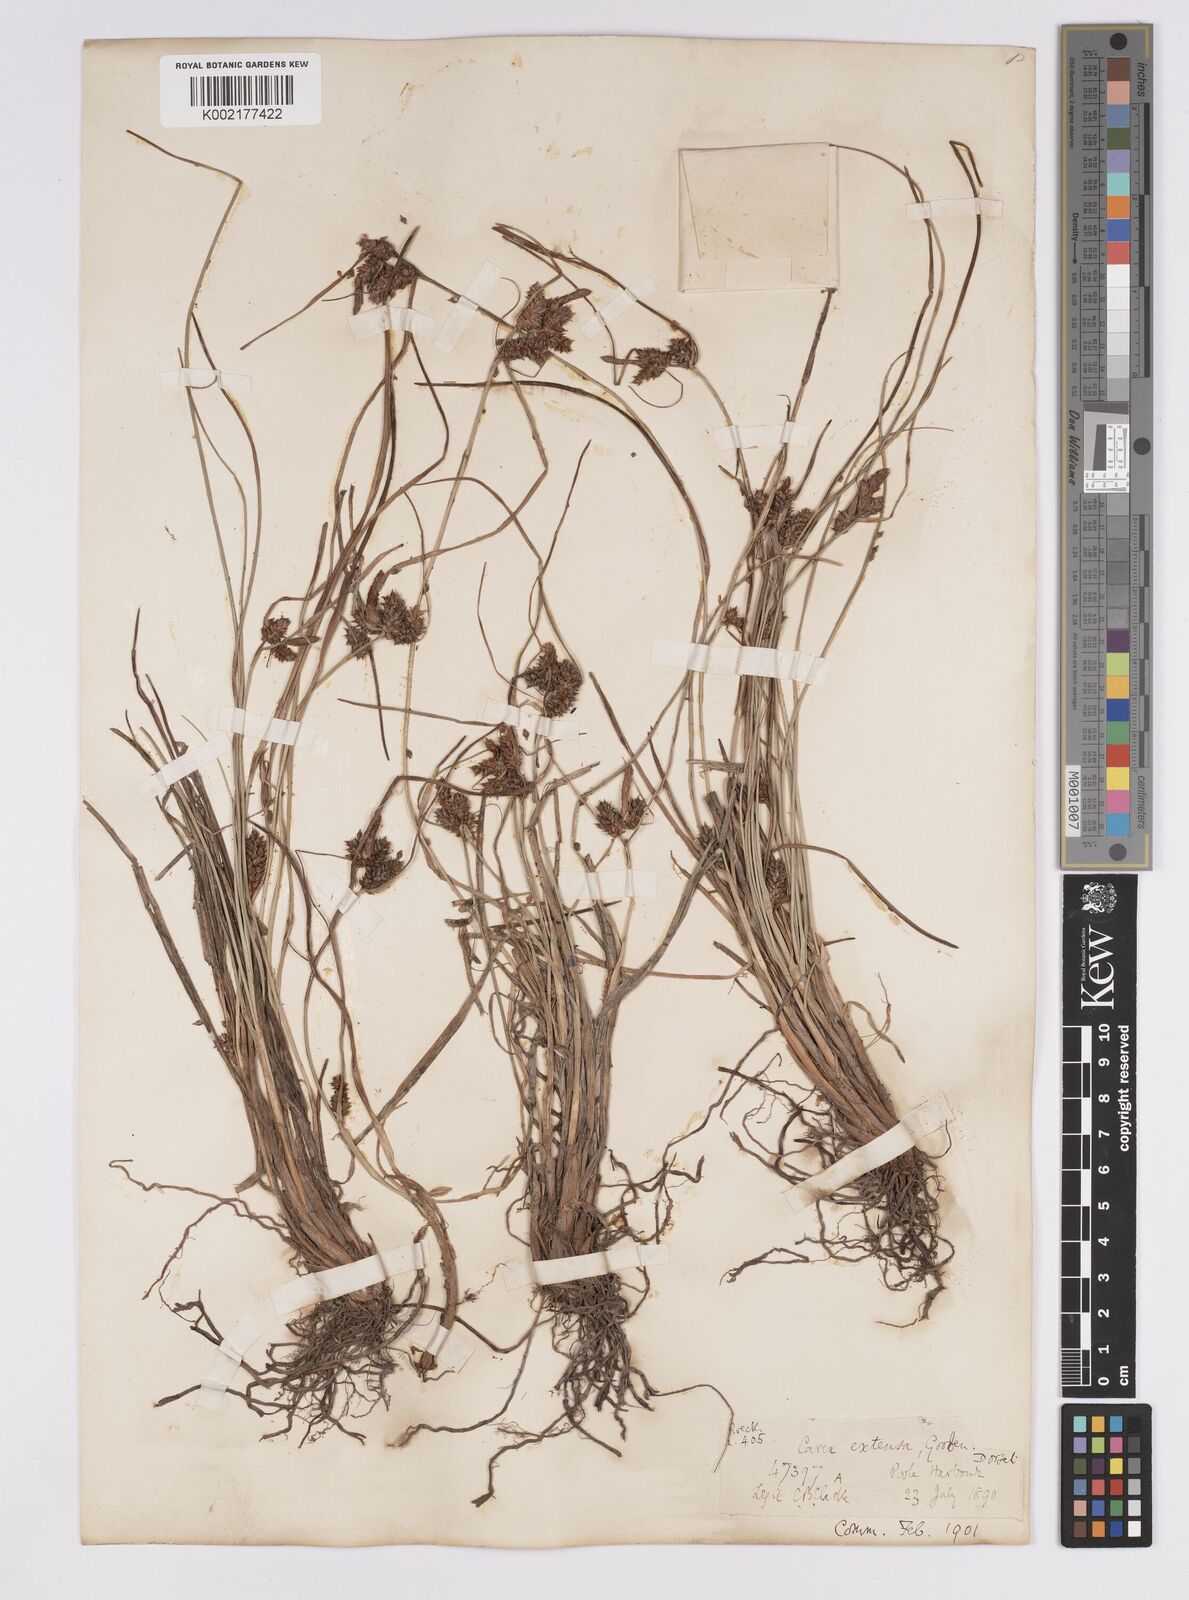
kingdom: Plantae
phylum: Tracheophyta
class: Liliopsida
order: Poales
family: Cyperaceae
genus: Carex
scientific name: Carex extensa
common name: Long-bracted sedge
